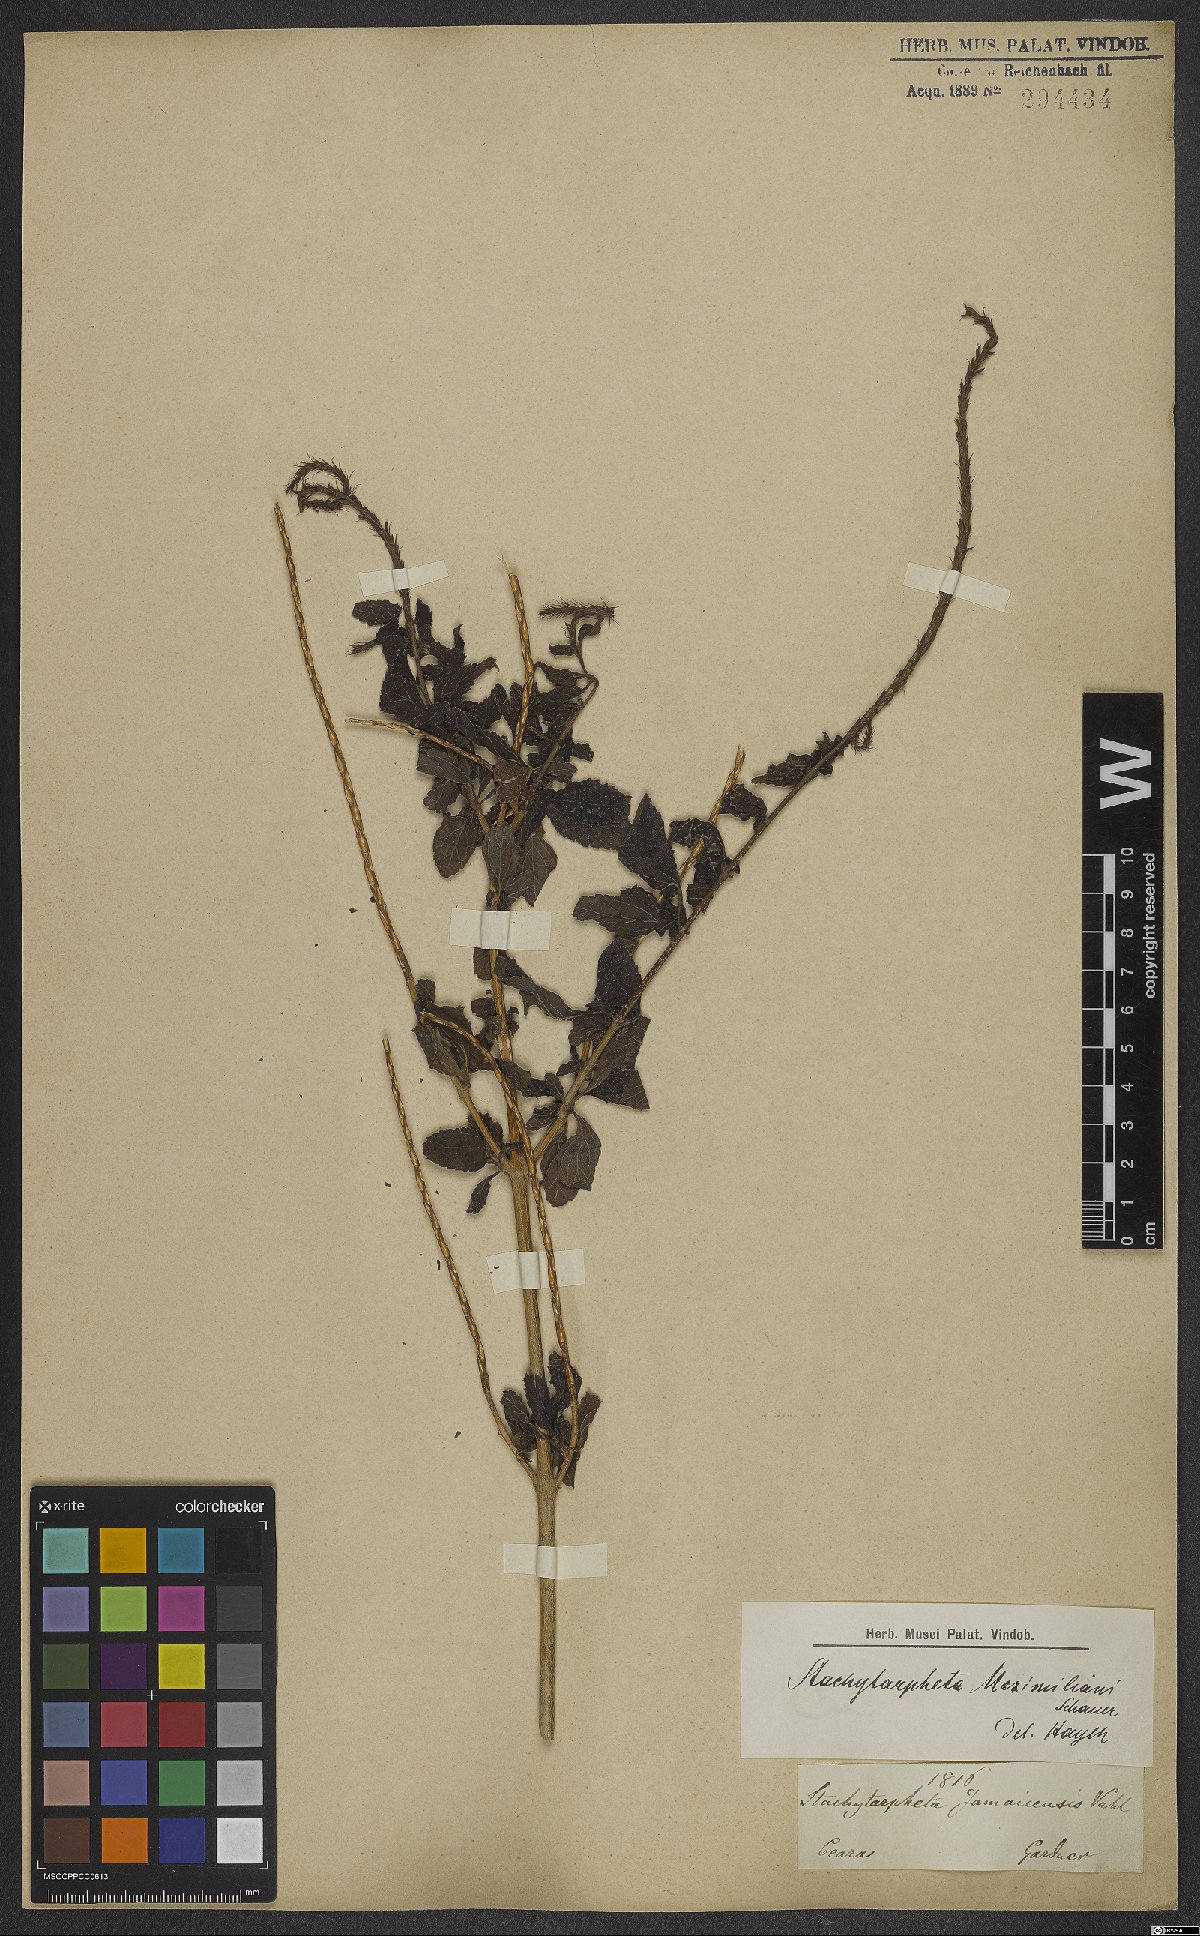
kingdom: Plantae
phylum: Tracheophyta
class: Magnoliopsida
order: Lamiales
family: Verbenaceae
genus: Stachytarpheta
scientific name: Stachytarpheta maximiliani
